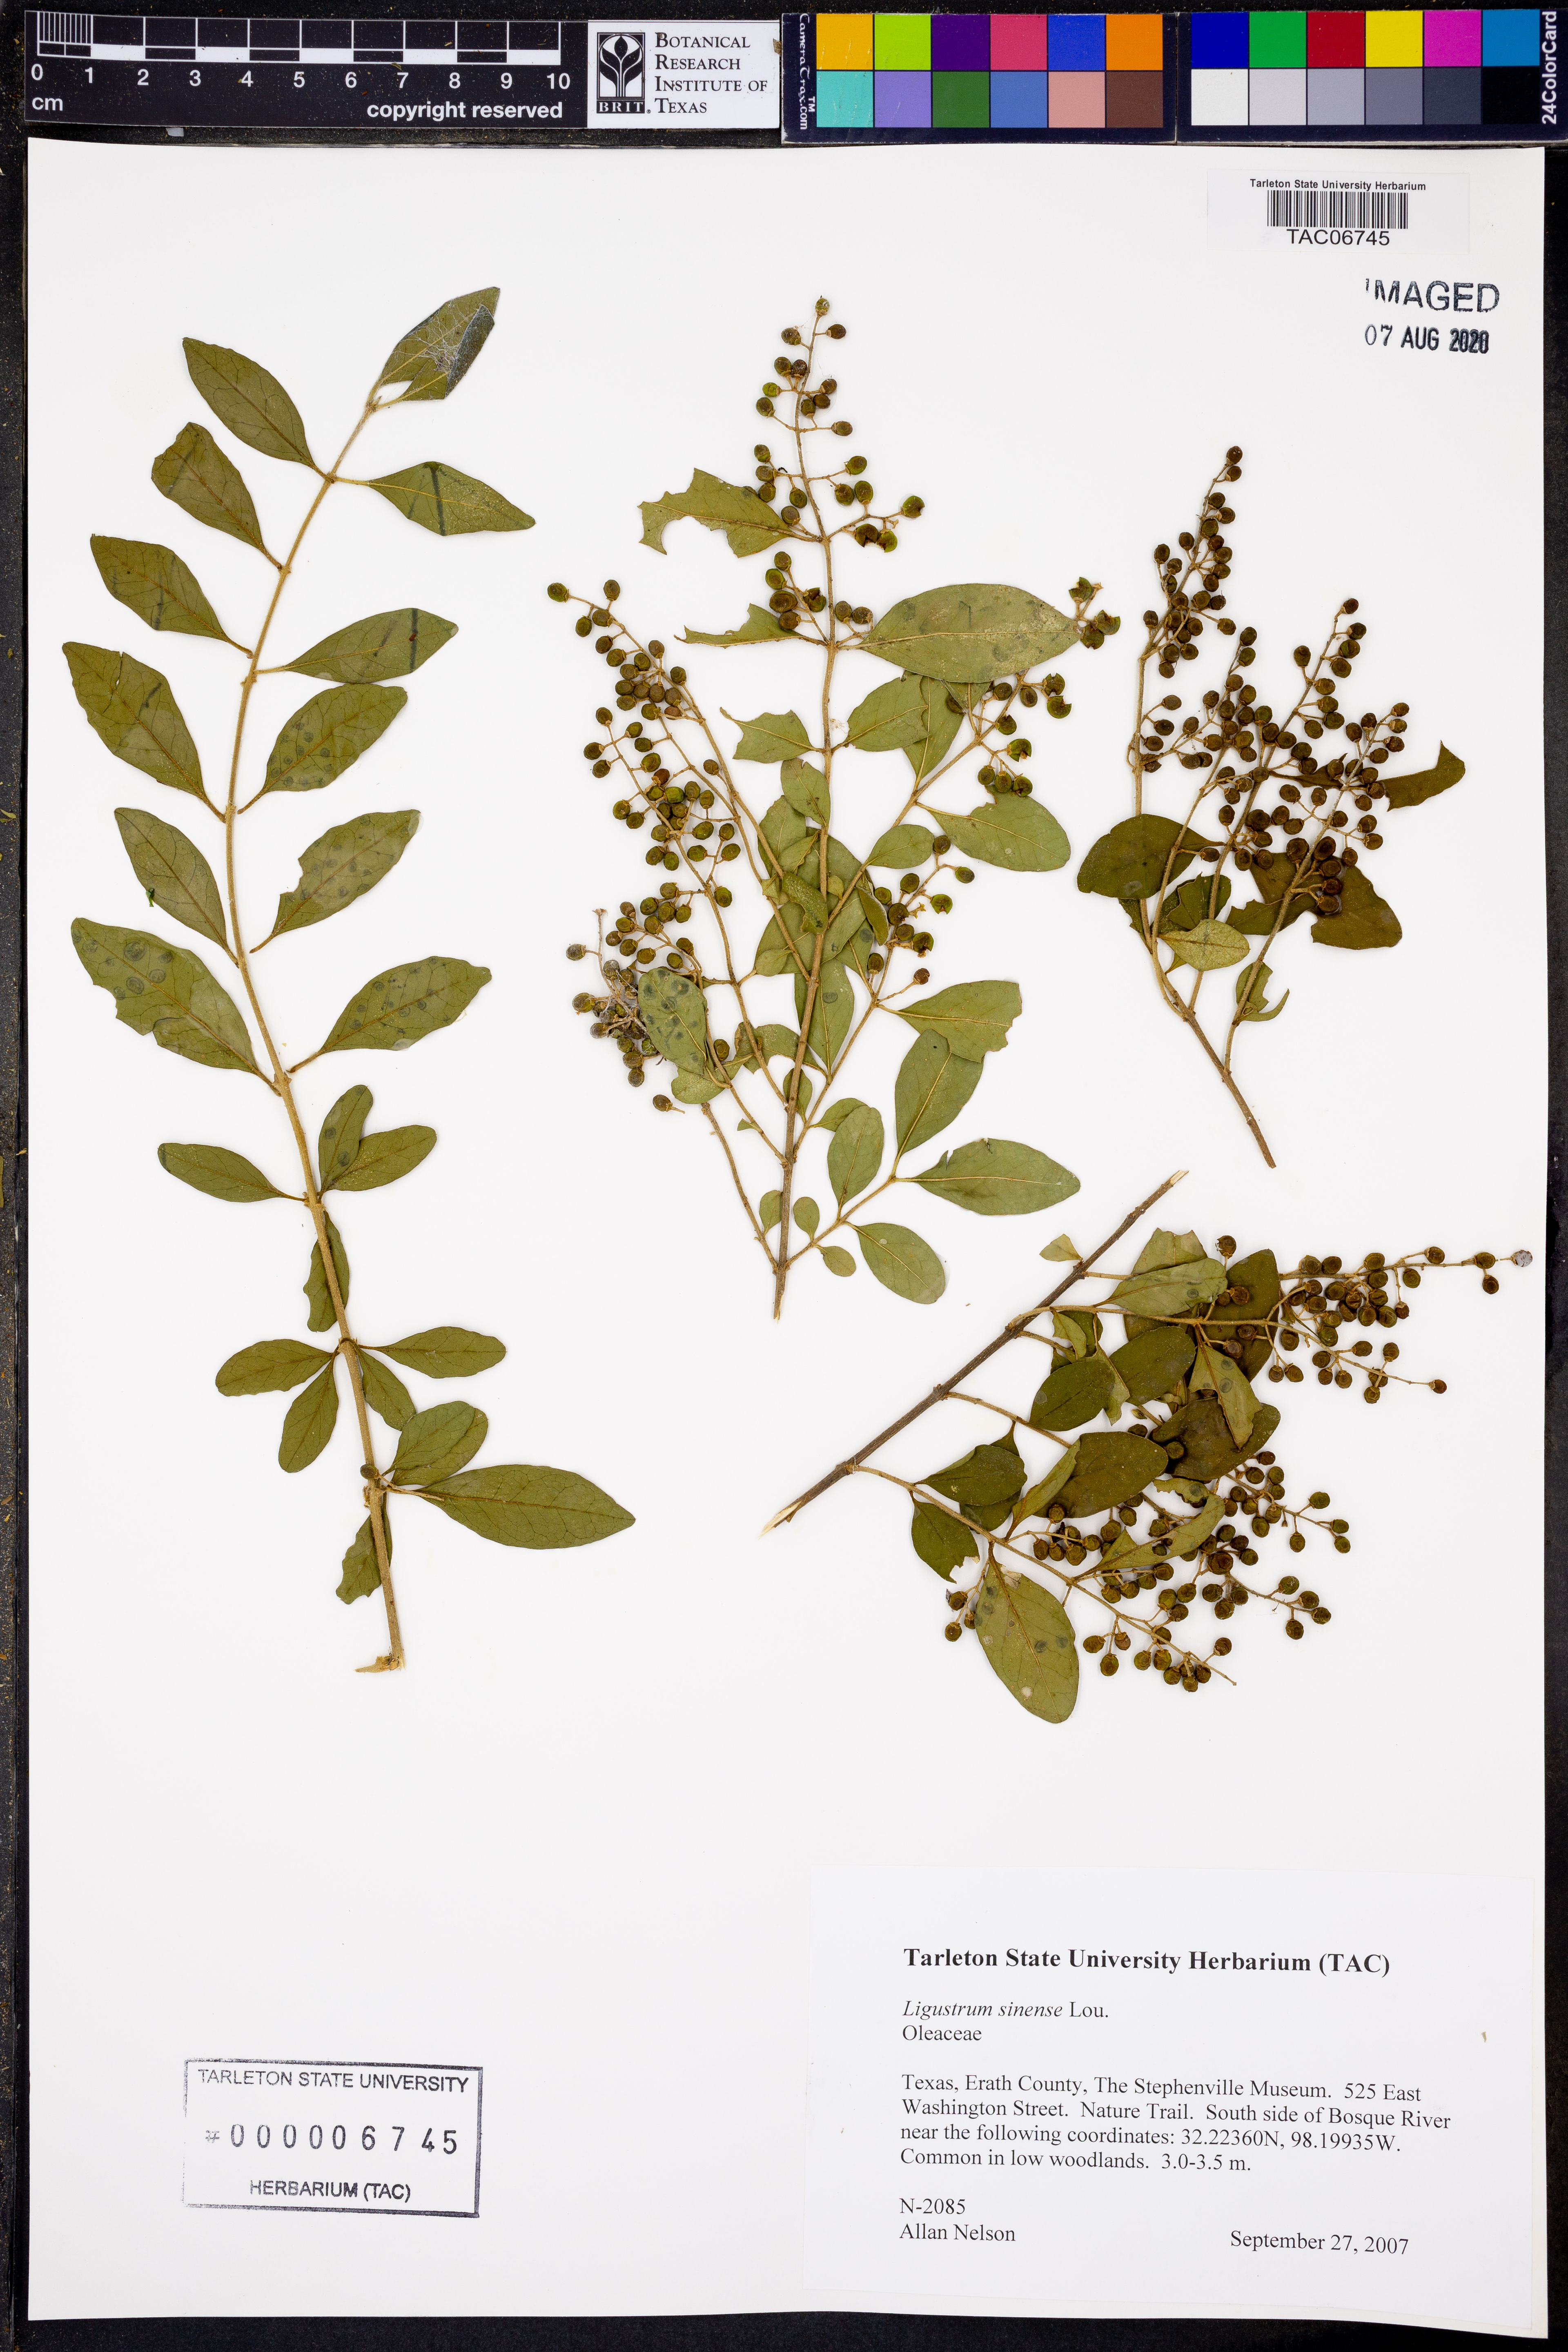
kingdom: Plantae
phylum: Tracheophyta
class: Magnoliopsida
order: Lamiales
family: Oleaceae
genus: Ligustrum
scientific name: Ligustrum sinense
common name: Chinese privet
